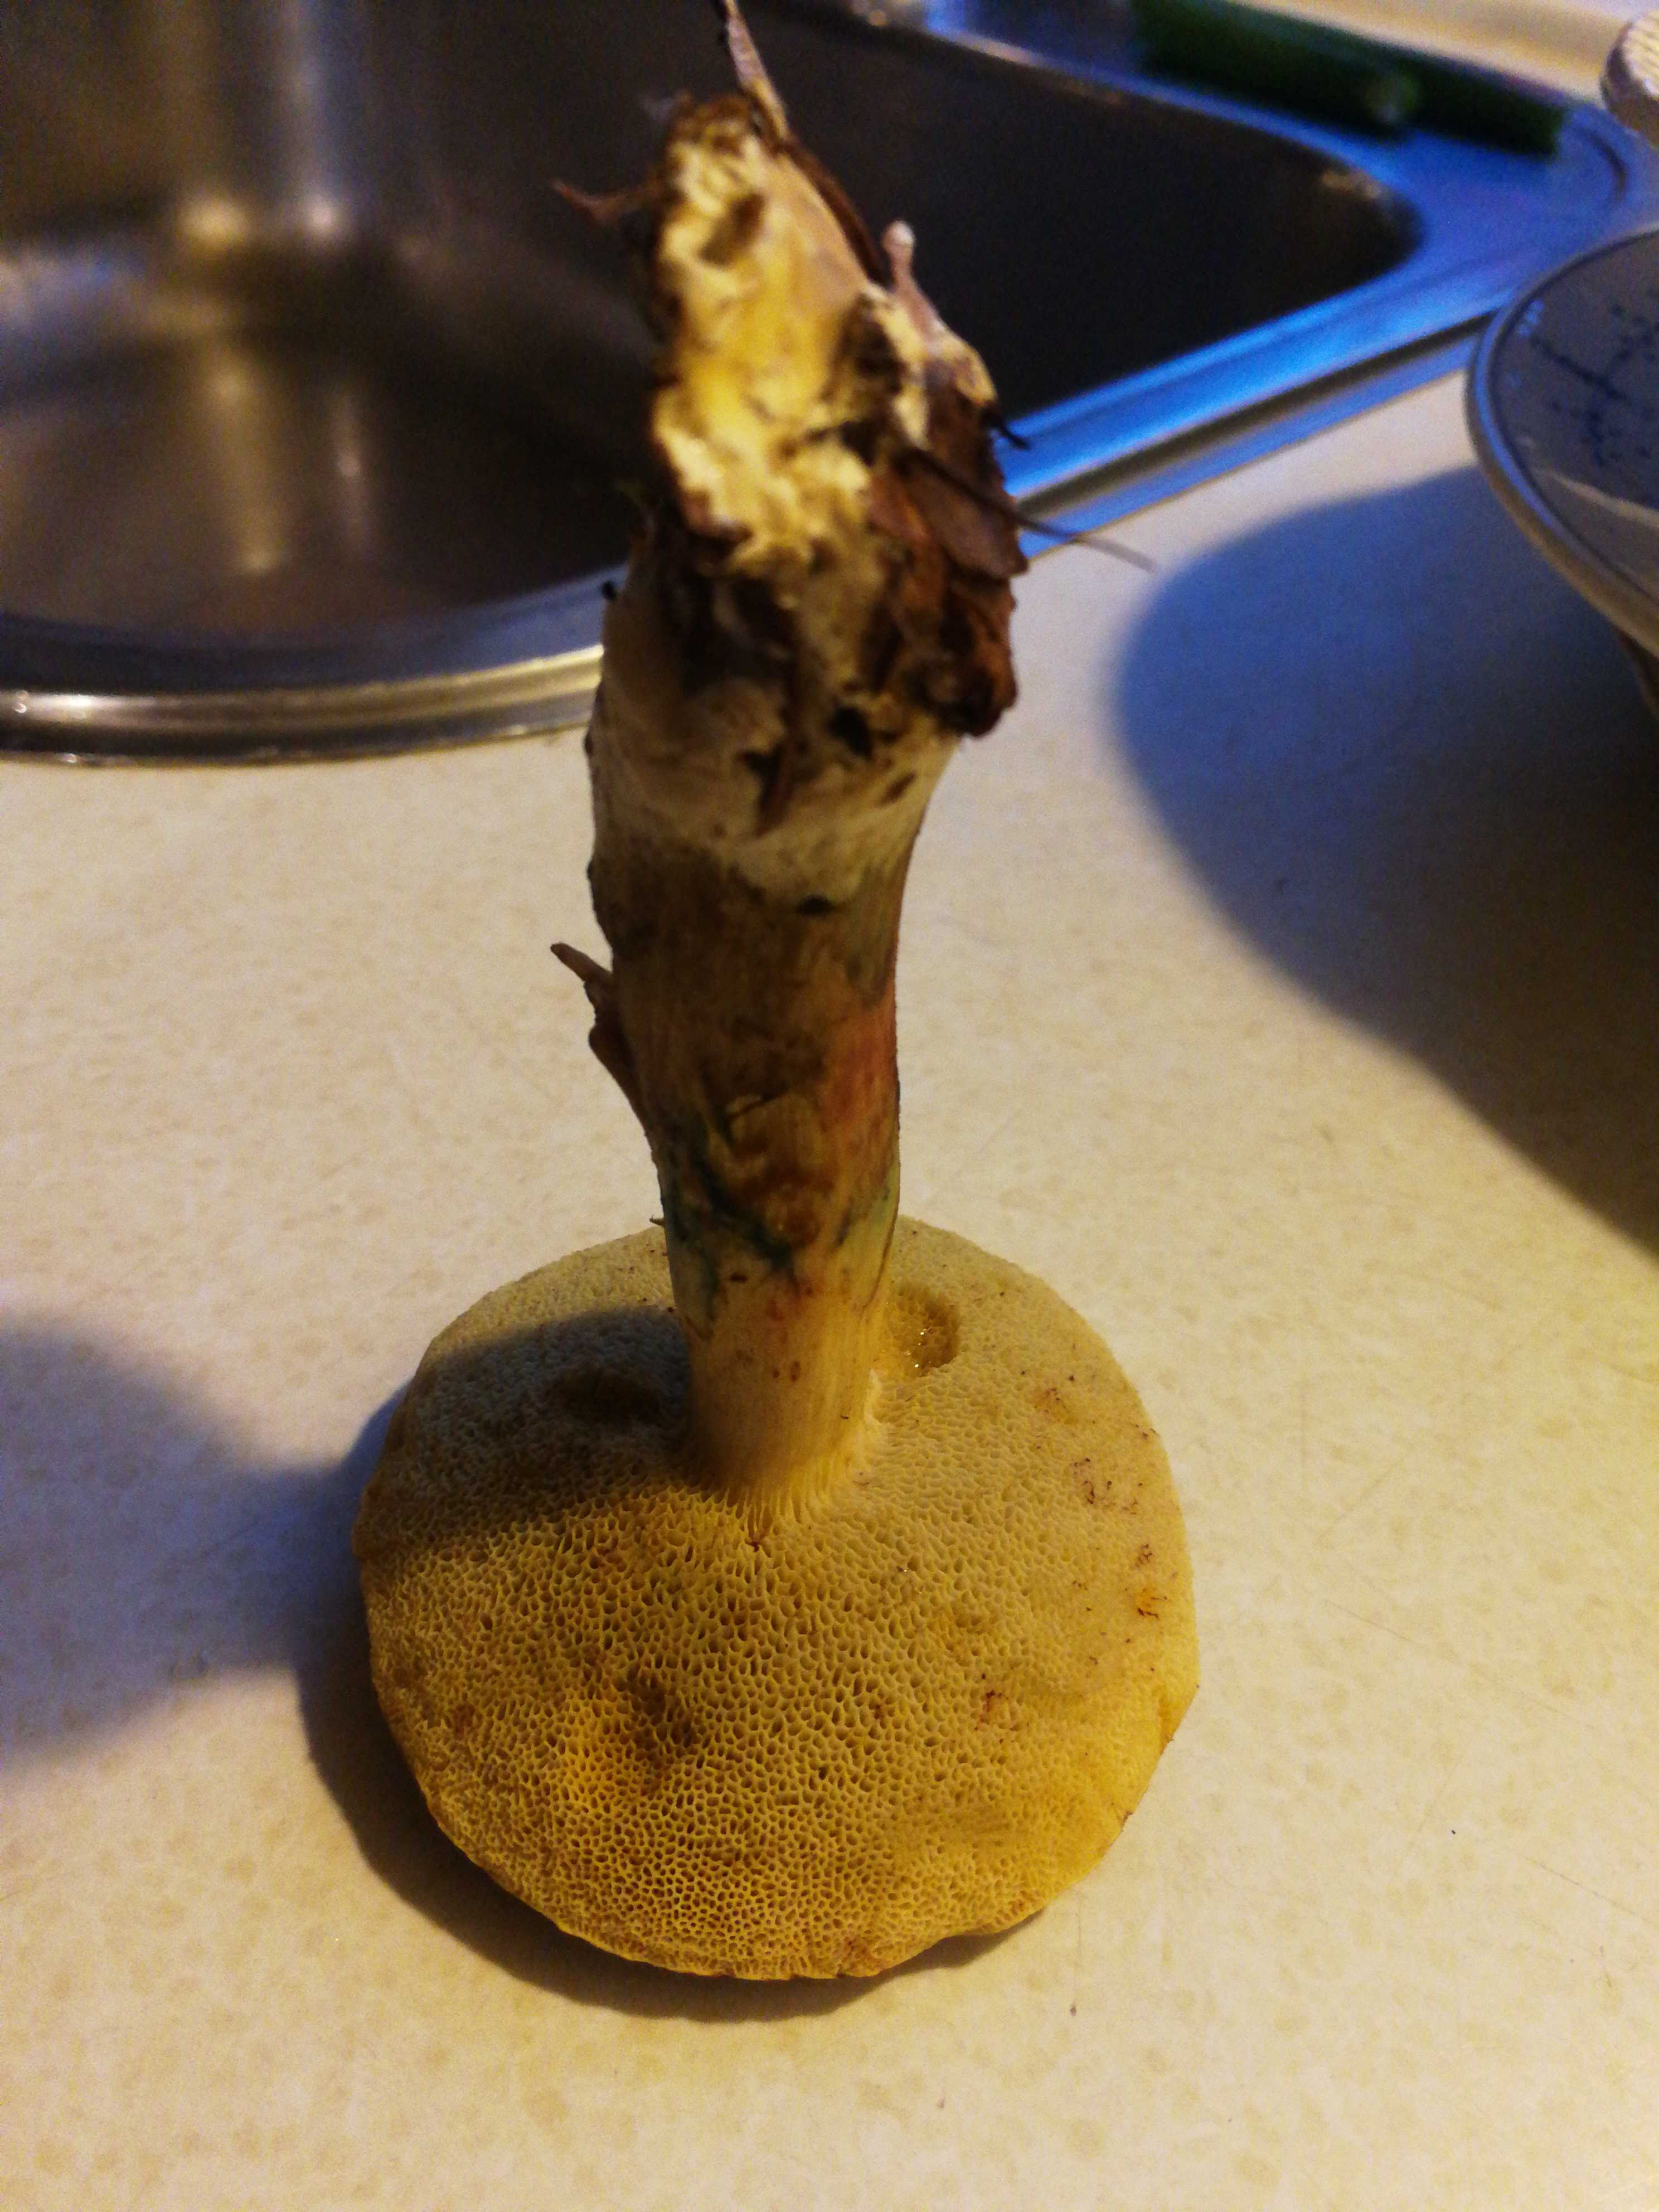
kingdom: Fungi
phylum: Basidiomycota
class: Agaricomycetes
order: Boletales
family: Boletaceae
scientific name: Boletaceae
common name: rørhatfamilien
